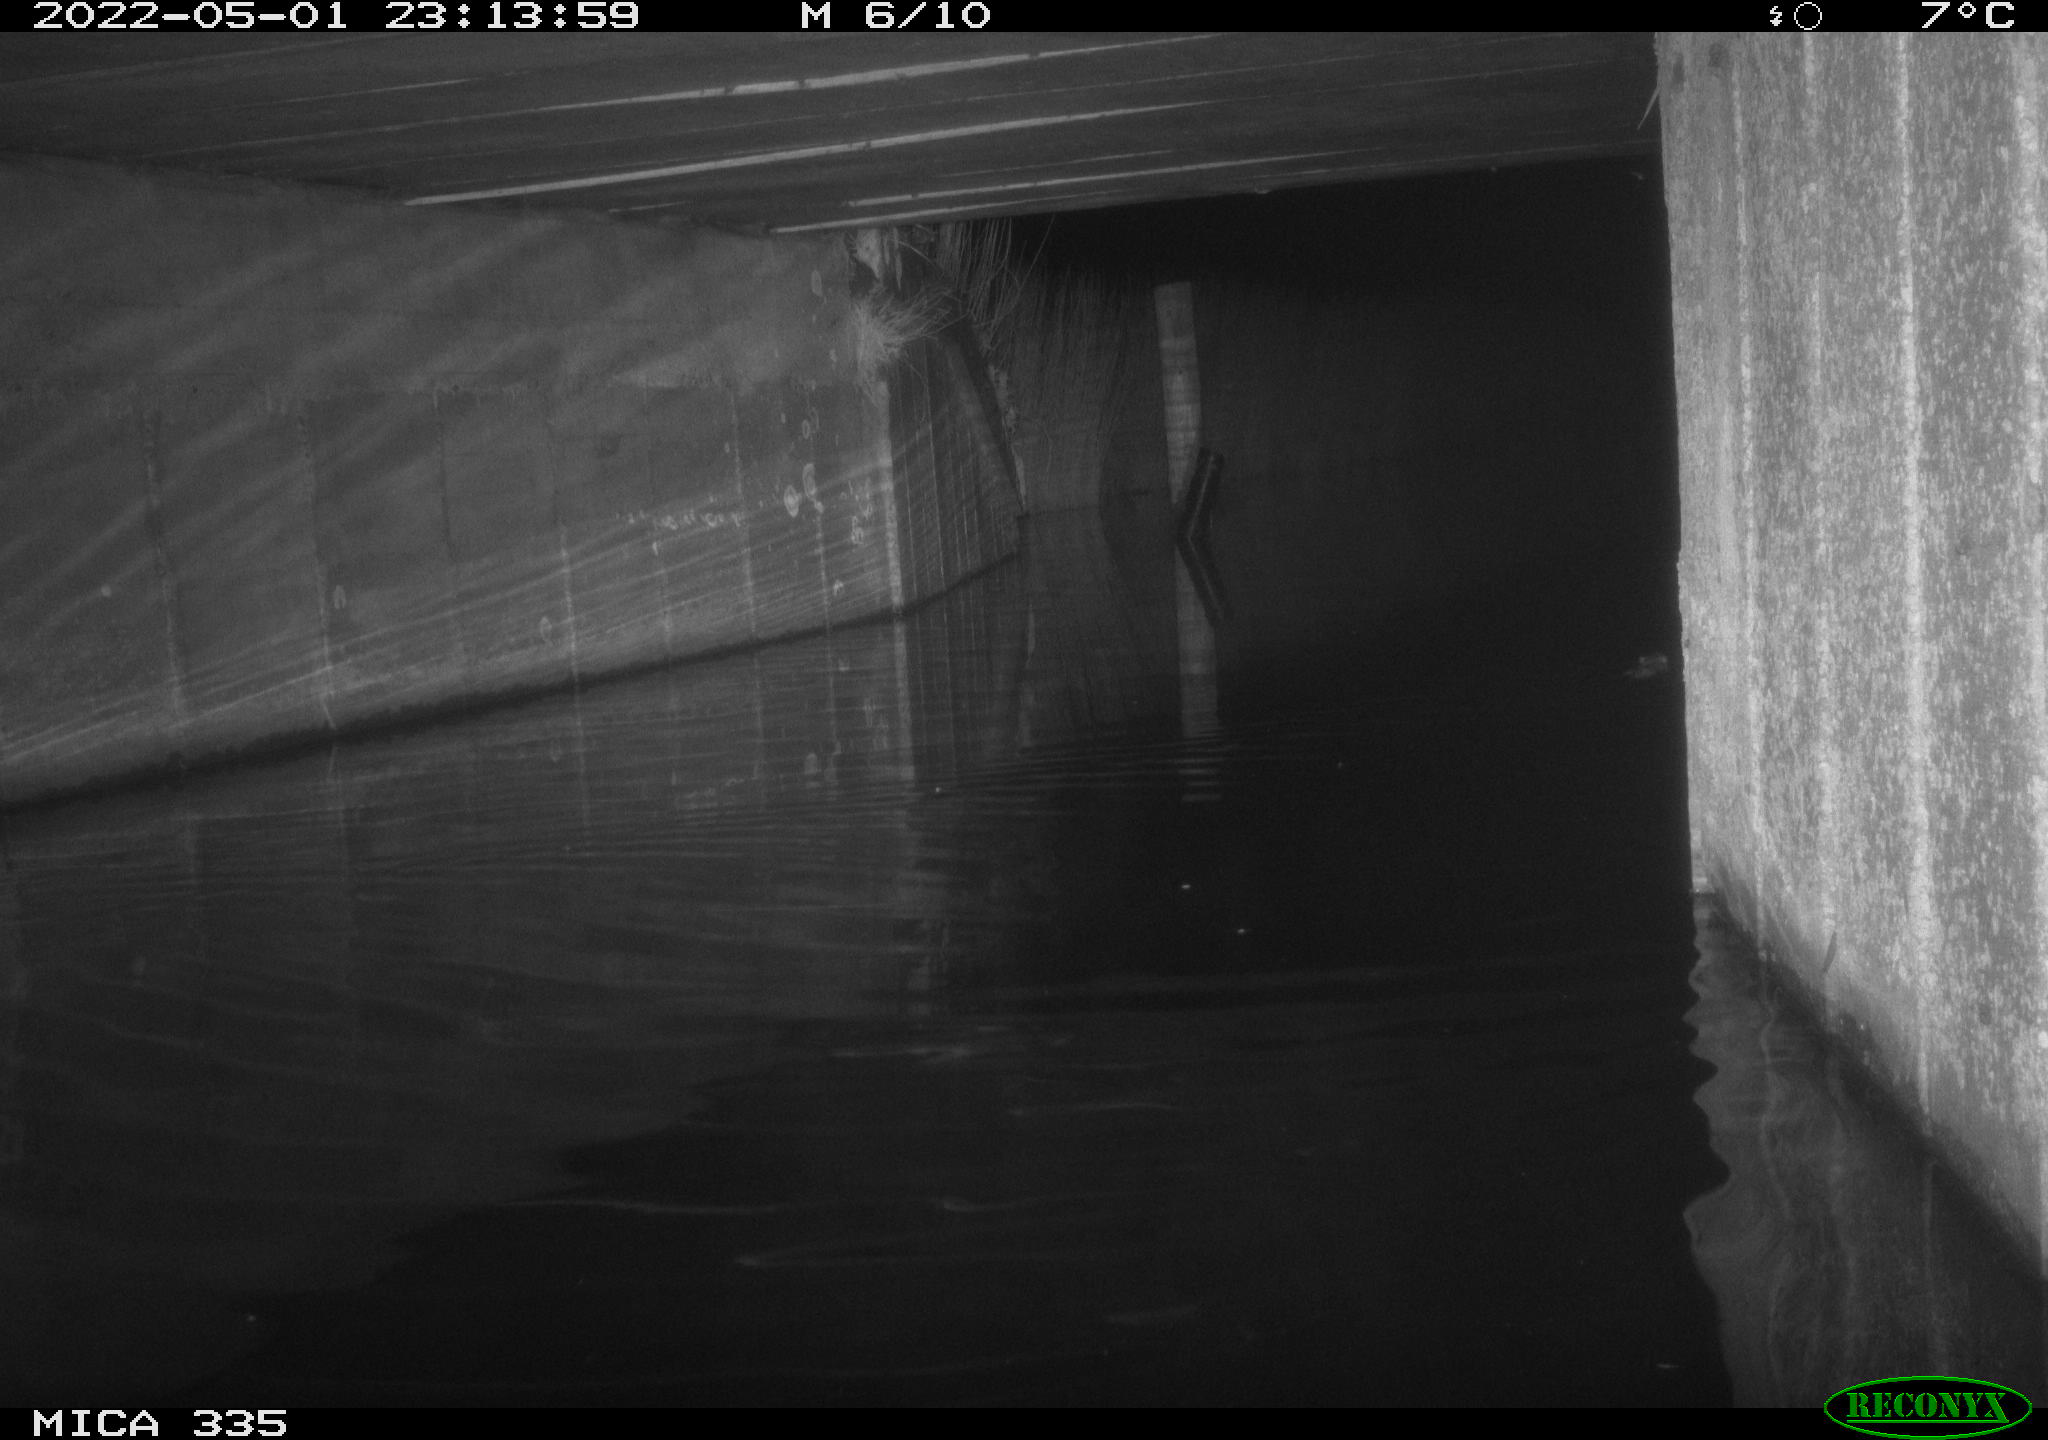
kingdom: Animalia
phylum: Chordata
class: Mammalia
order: Rodentia
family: Muridae
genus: Rattus
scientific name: Rattus norvegicus
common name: Brown rat
